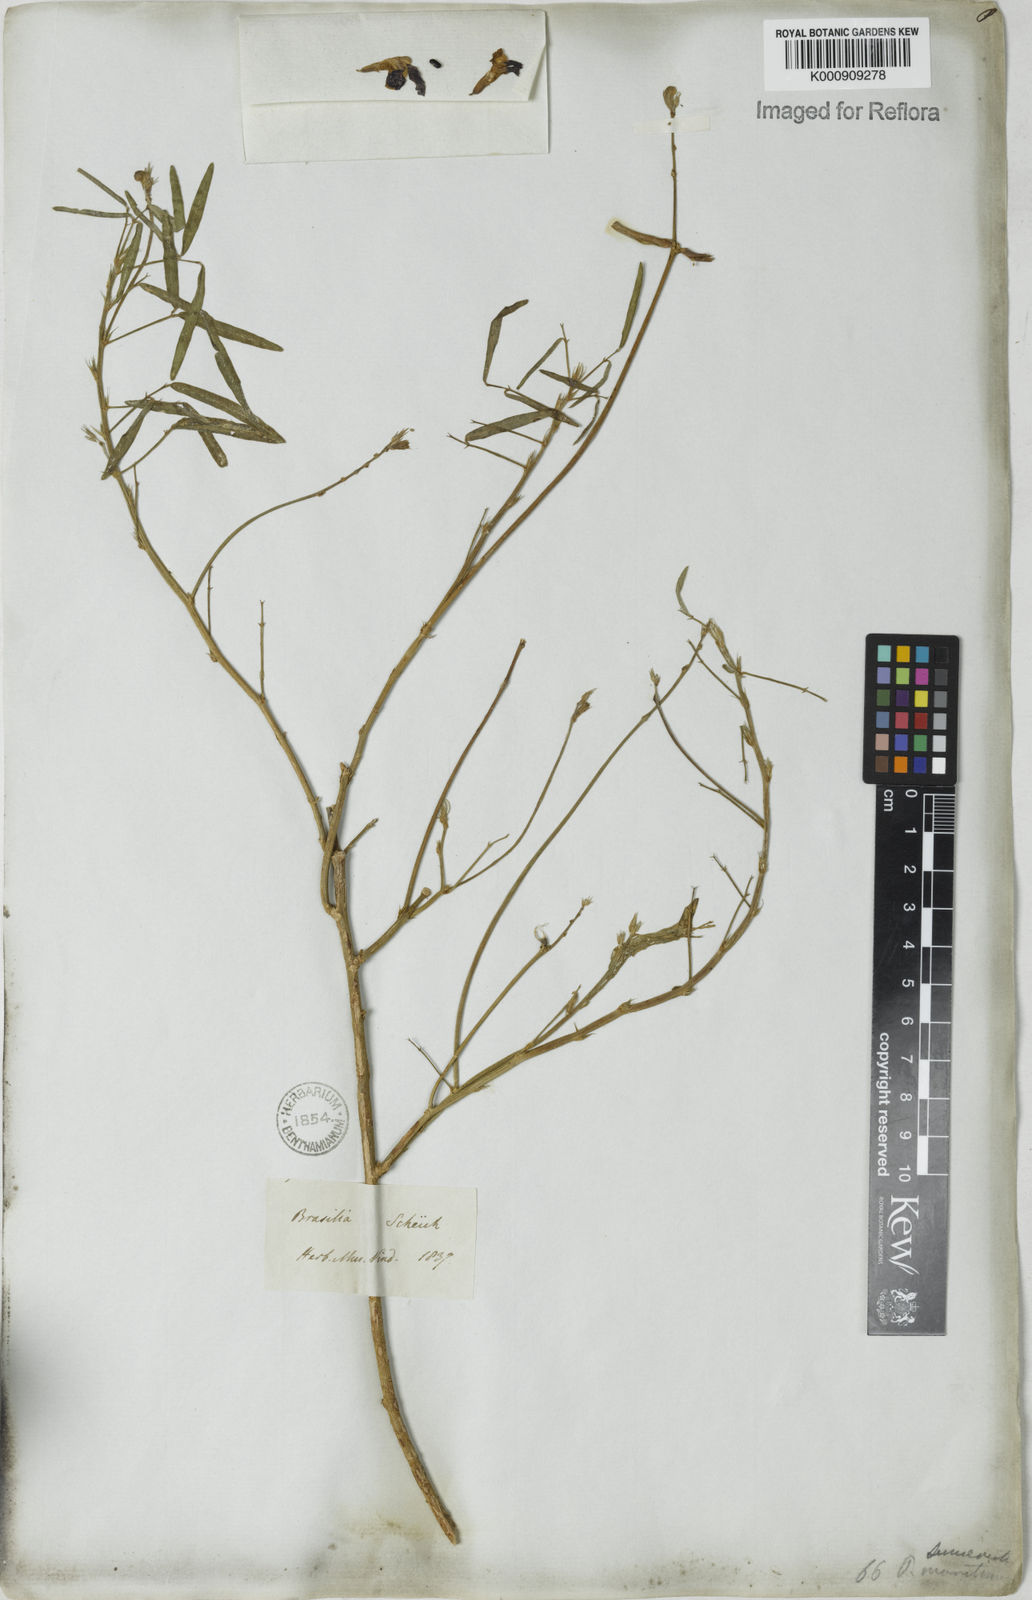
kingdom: Plantae
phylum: Tracheophyta
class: Magnoliopsida
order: Fabales
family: Fabaceae
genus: Macroptilium
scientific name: Macroptilium lathyroides
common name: Wild bushbean
